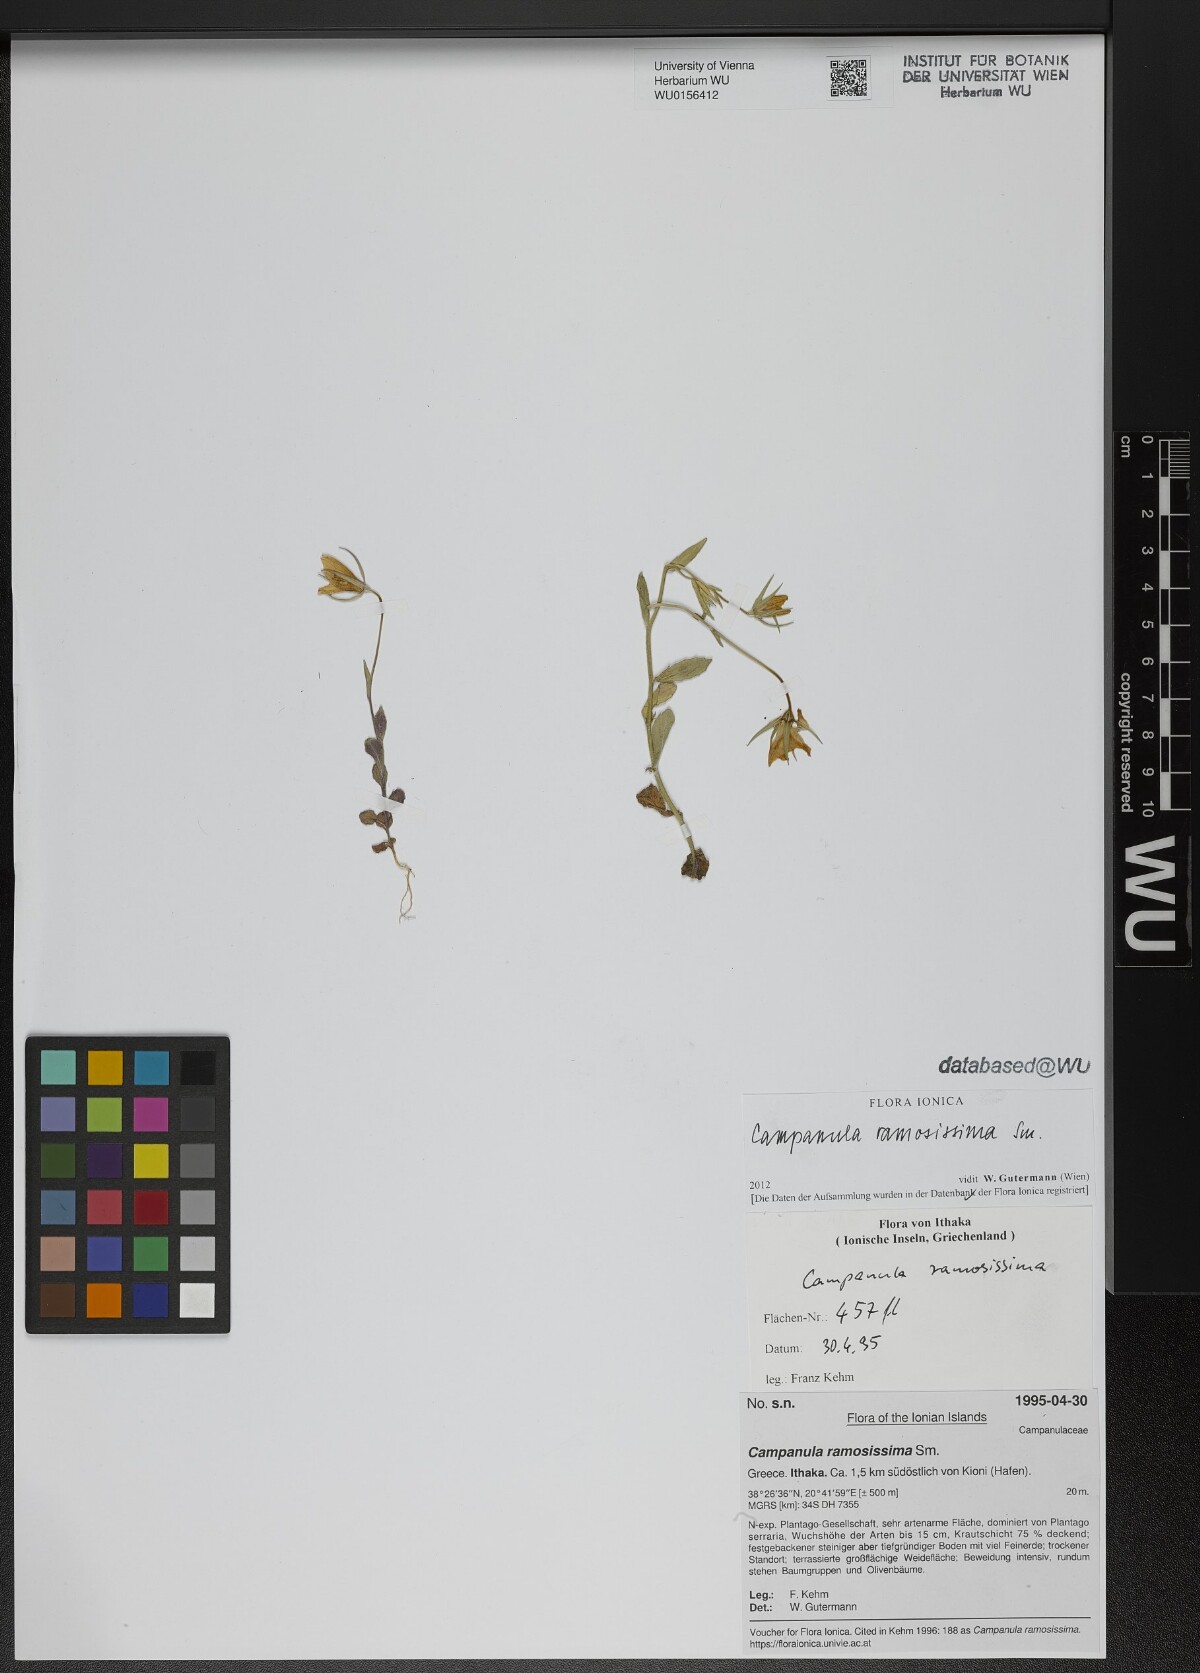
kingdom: Plantae
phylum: Tracheophyta
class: Magnoliopsida
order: Asterales
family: Campanulaceae
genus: Campanula
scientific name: Campanula ramosissima
